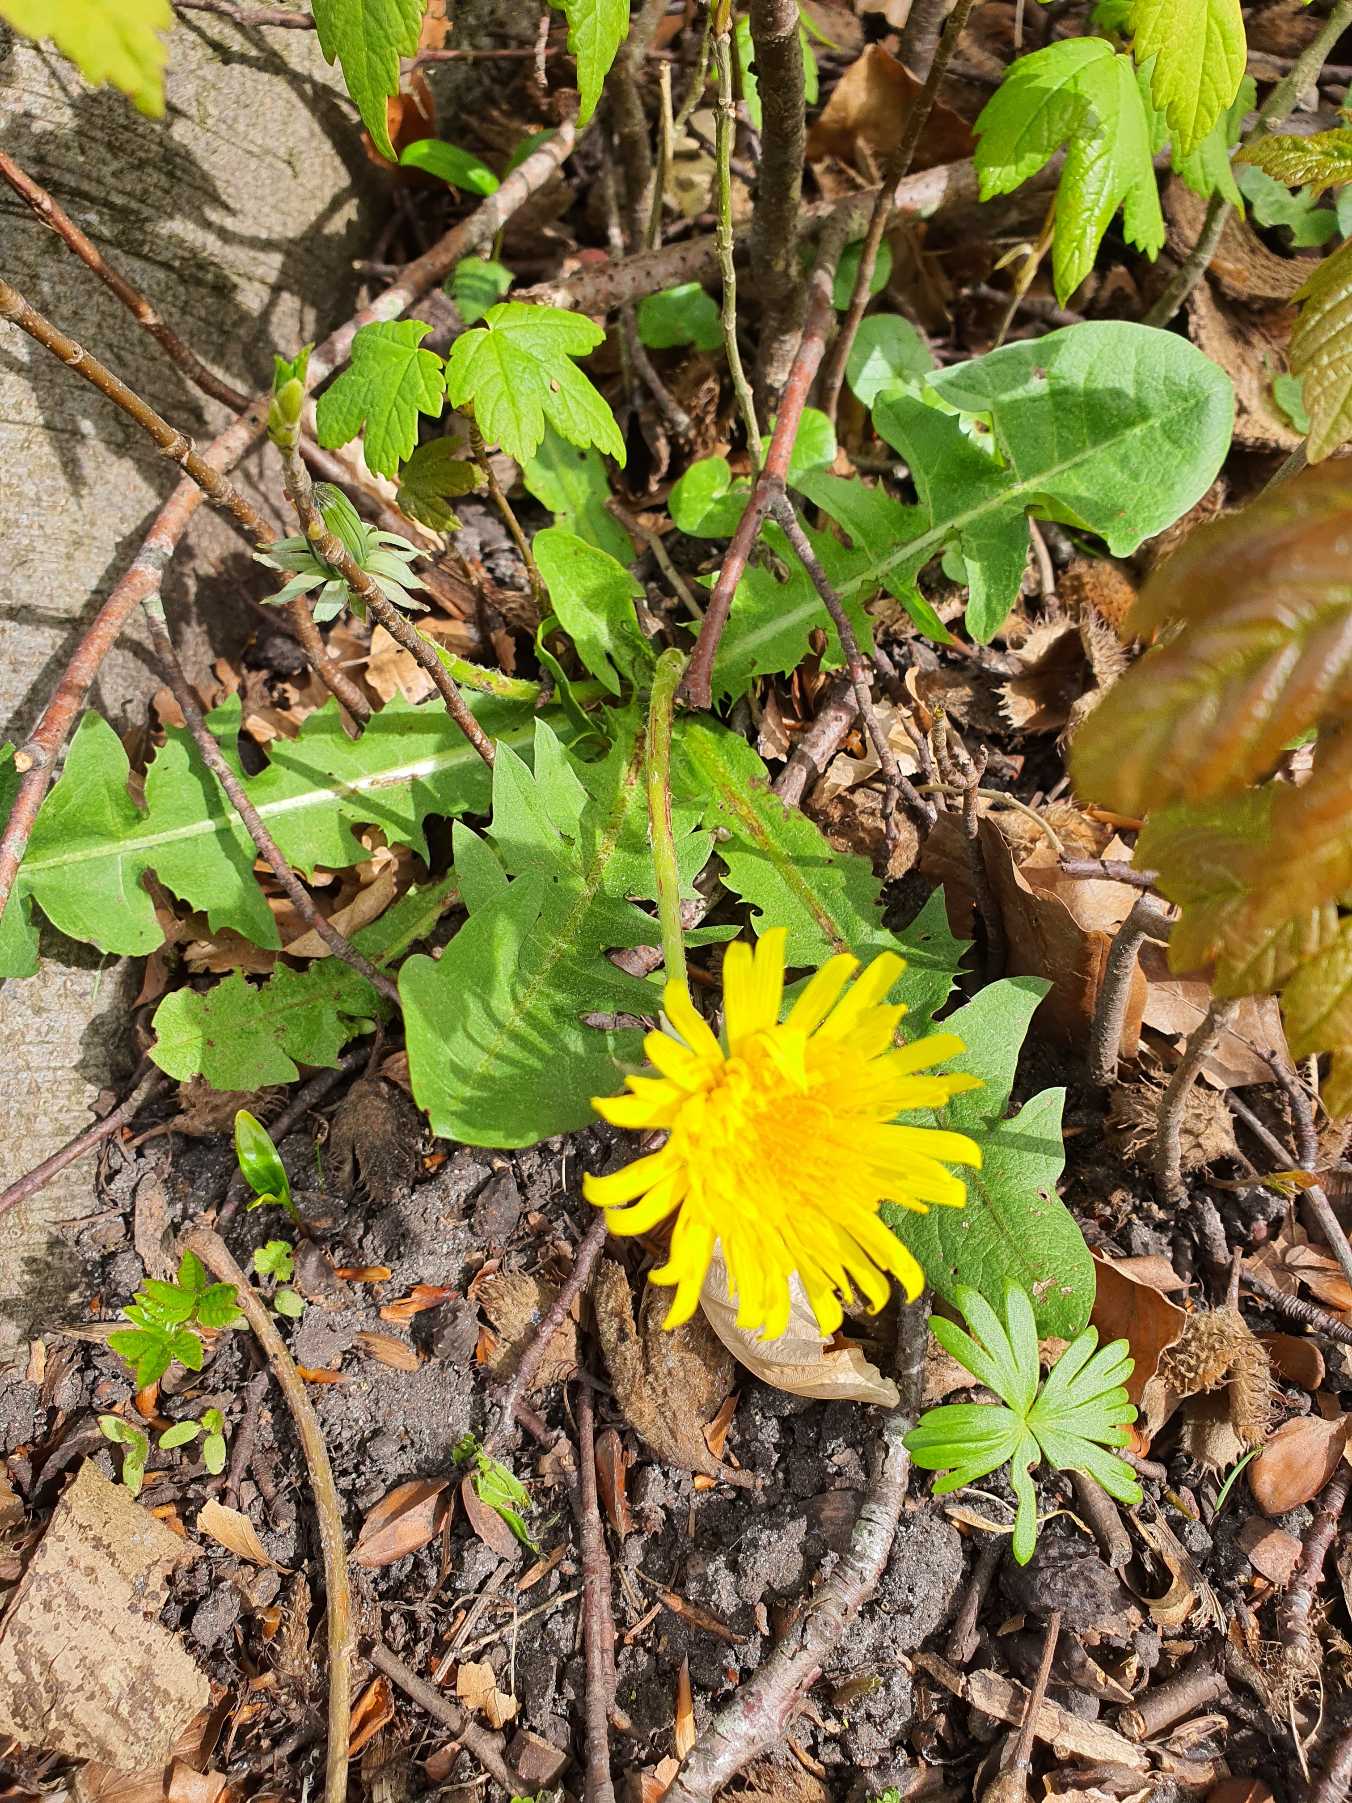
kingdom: Plantae
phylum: Tracheophyta
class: Magnoliopsida
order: Asterales
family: Asteraceae
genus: Taraxacum
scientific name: Taraxacum
